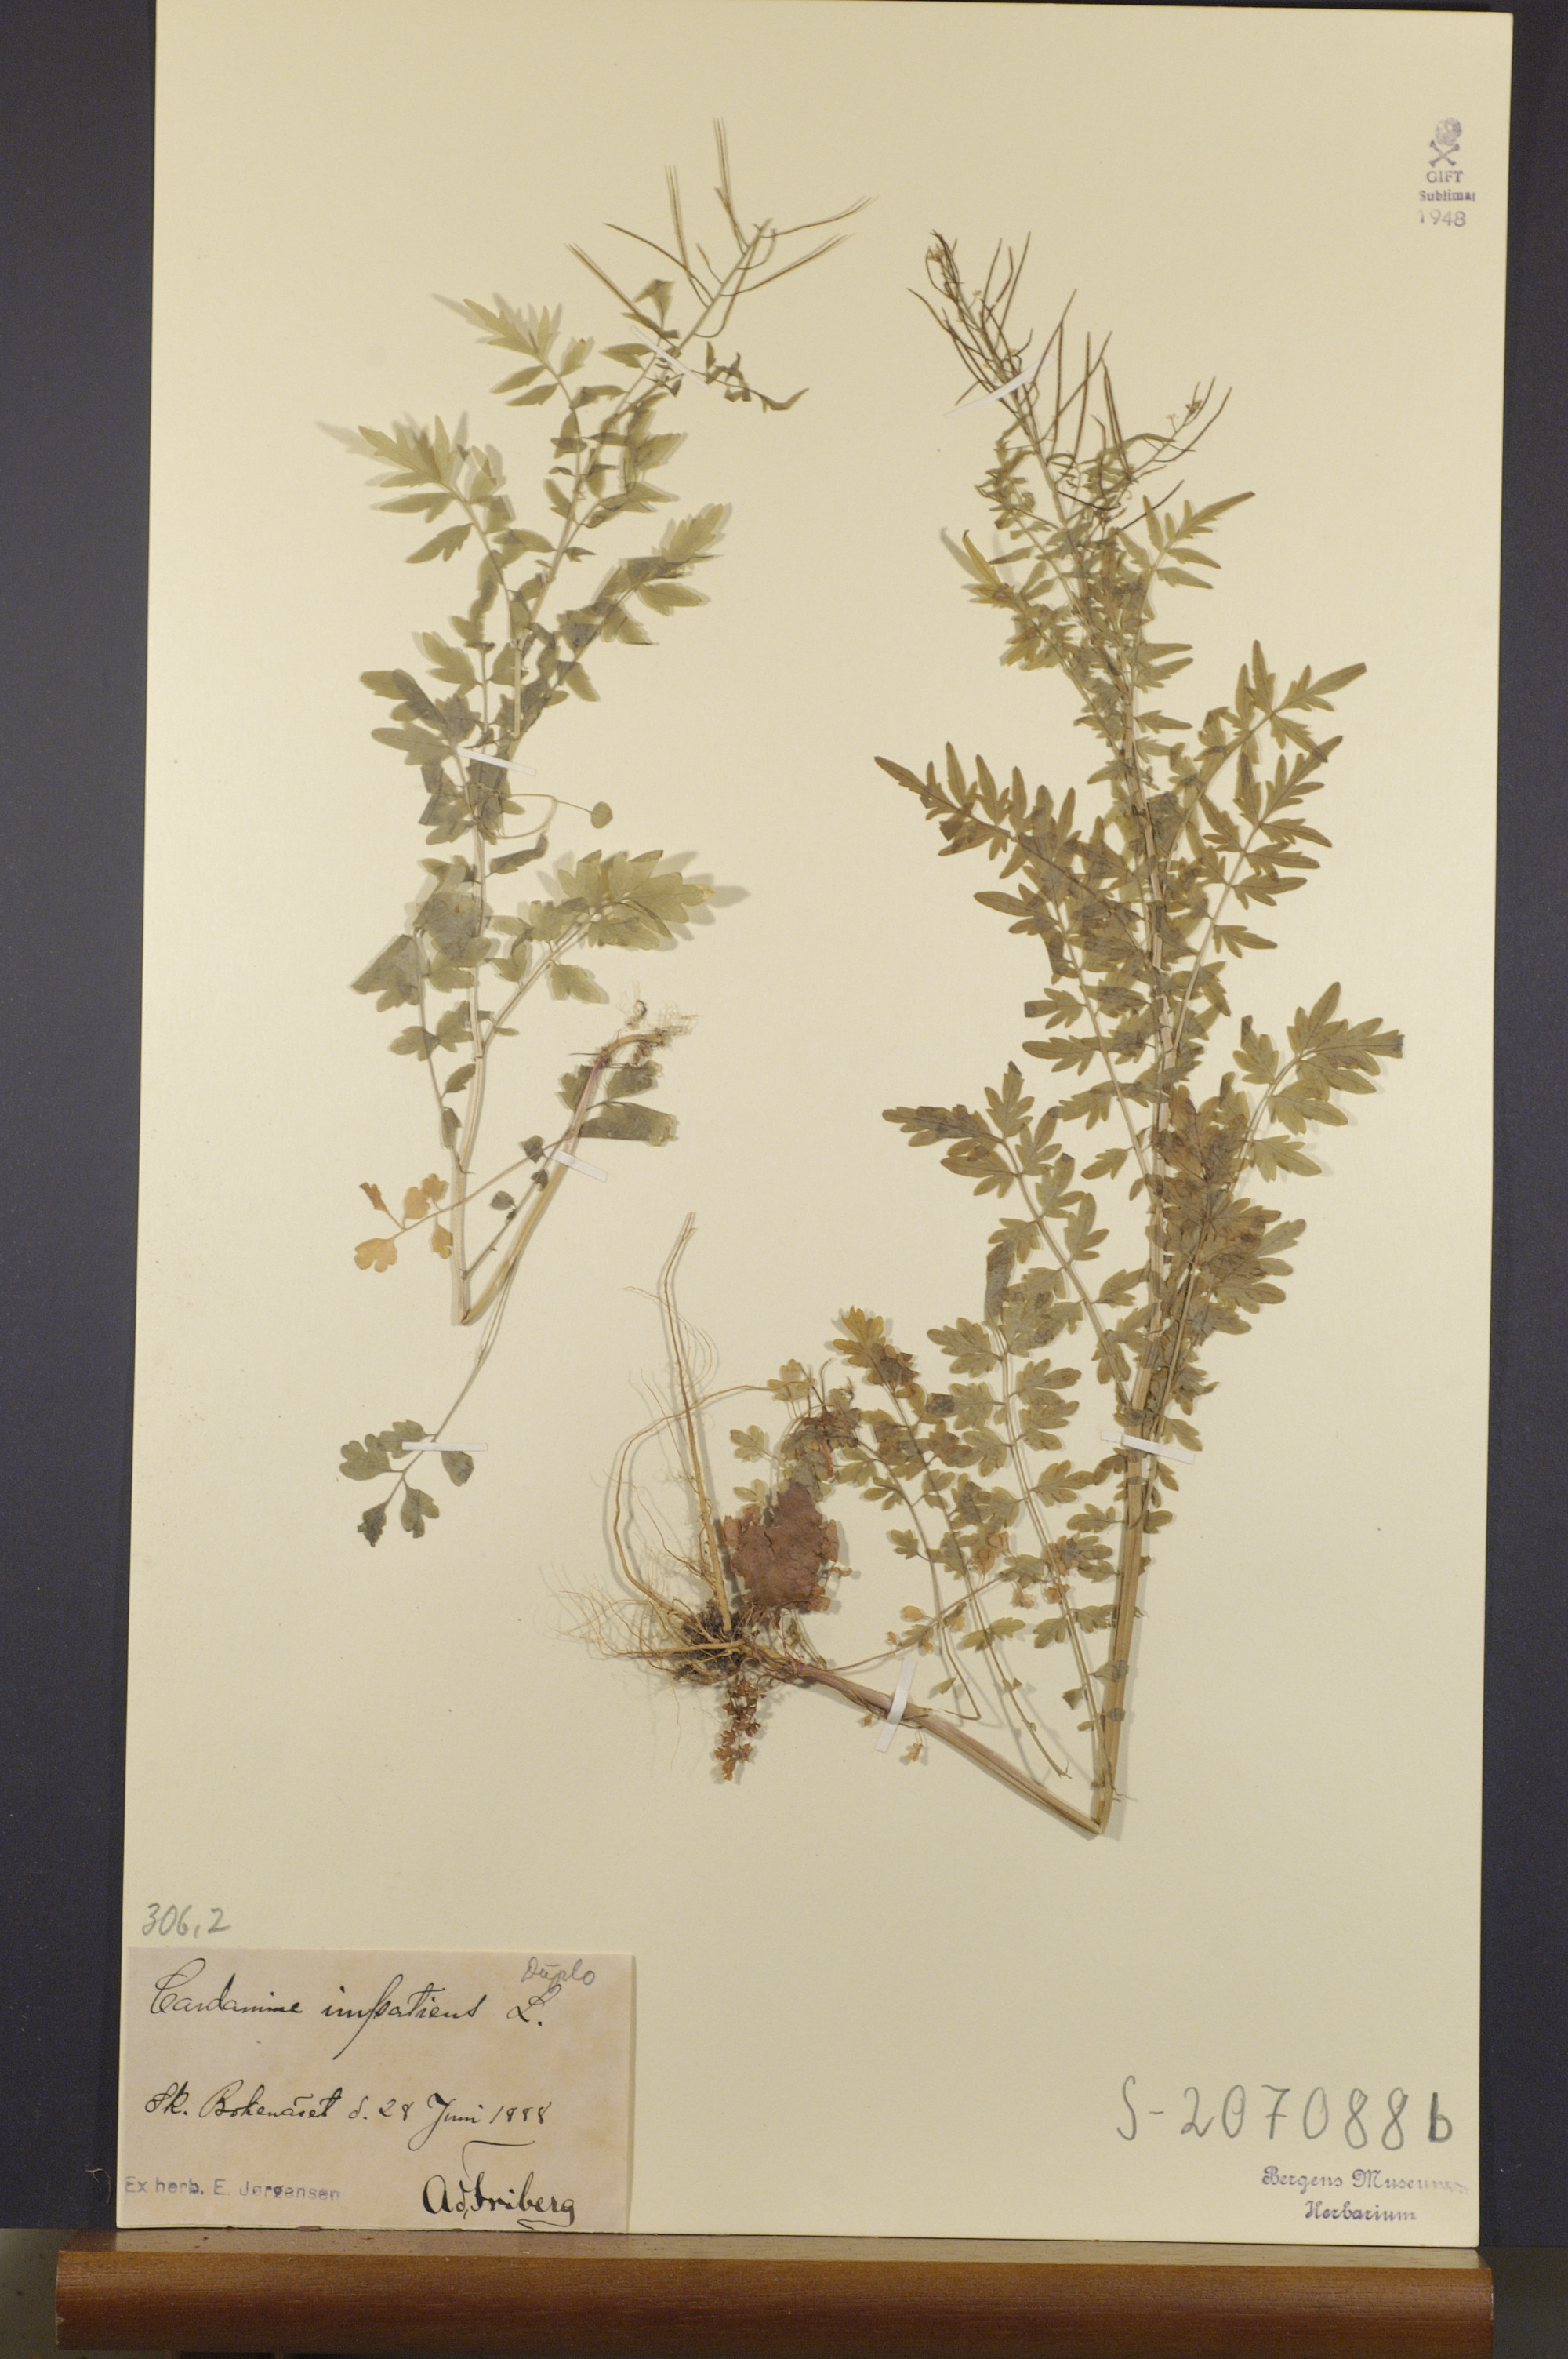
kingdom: Plantae
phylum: Tracheophyta
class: Magnoliopsida
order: Brassicales
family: Brassicaceae
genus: Cardamine
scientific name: Cardamine impatiens
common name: Narrow-leaved bitter-cress
